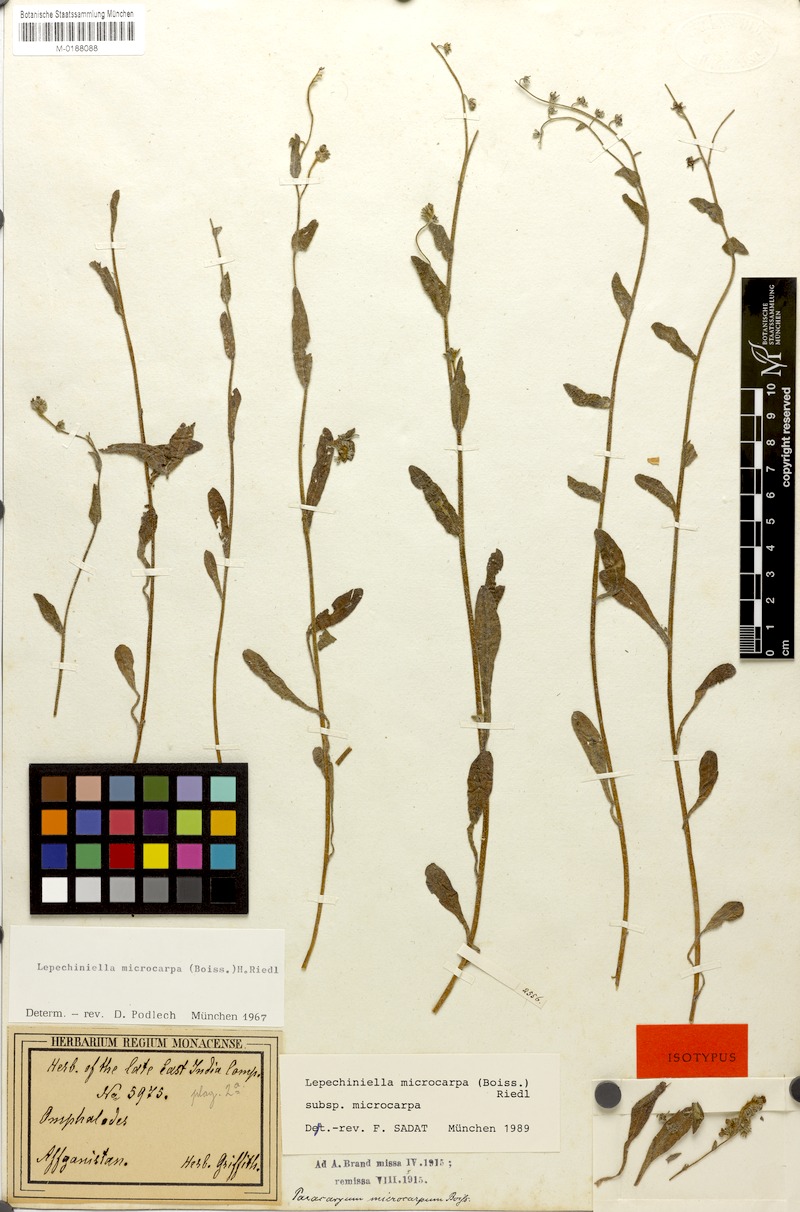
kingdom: Plantae
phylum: Tracheophyta
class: Magnoliopsida
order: Boraginales
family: Boraginaceae
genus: Lepechiniella
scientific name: Lepechiniella microcarpa
